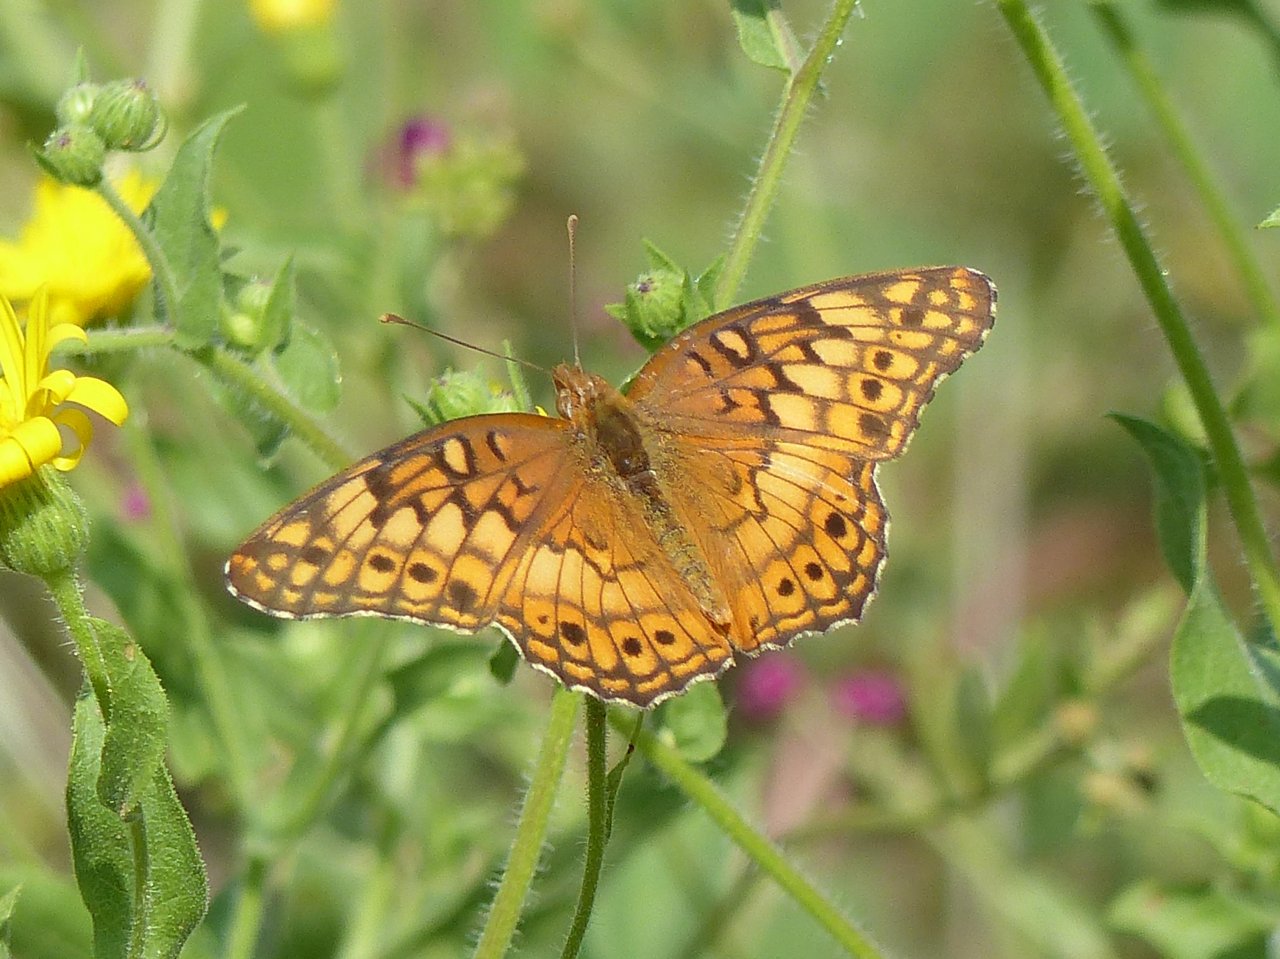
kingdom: Animalia
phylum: Arthropoda
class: Insecta
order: Lepidoptera
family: Nymphalidae
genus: Euptoieta
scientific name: Euptoieta claudia
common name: Variegated Fritillary
